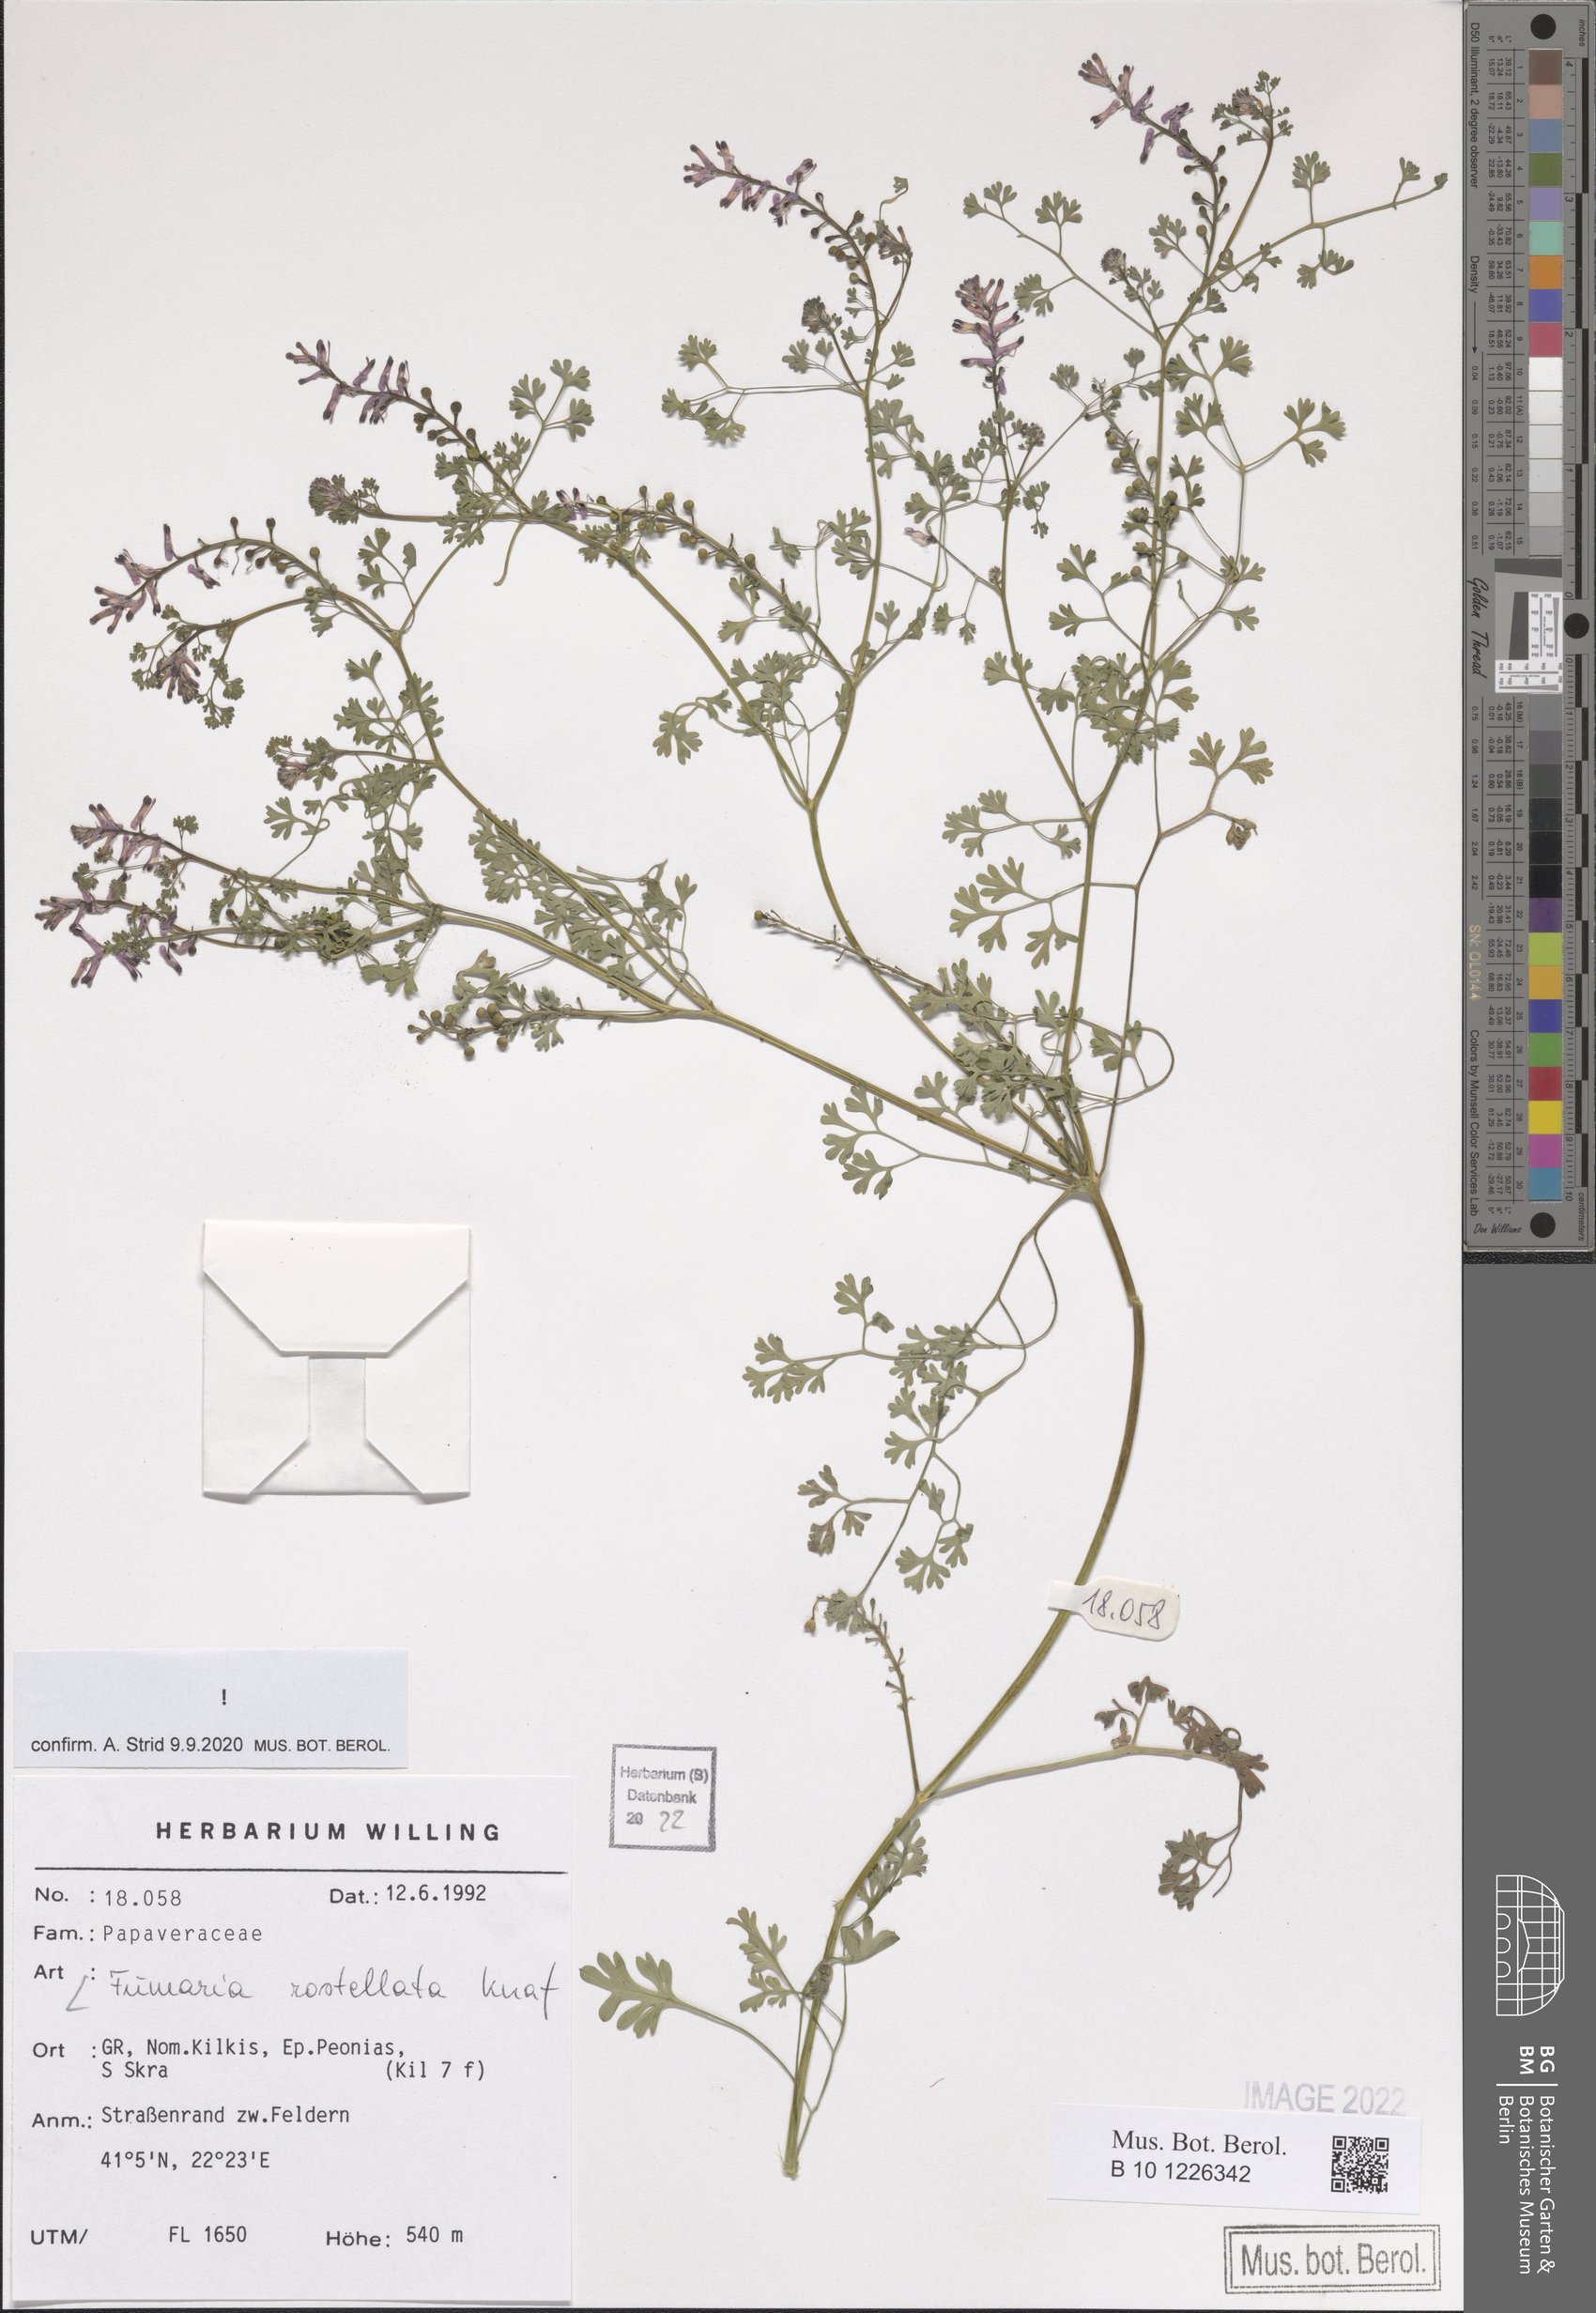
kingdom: Plantae
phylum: Tracheophyta
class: Magnoliopsida
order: Ranunculales
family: Papaveraceae
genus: Fumaria
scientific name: Fumaria rostellata
